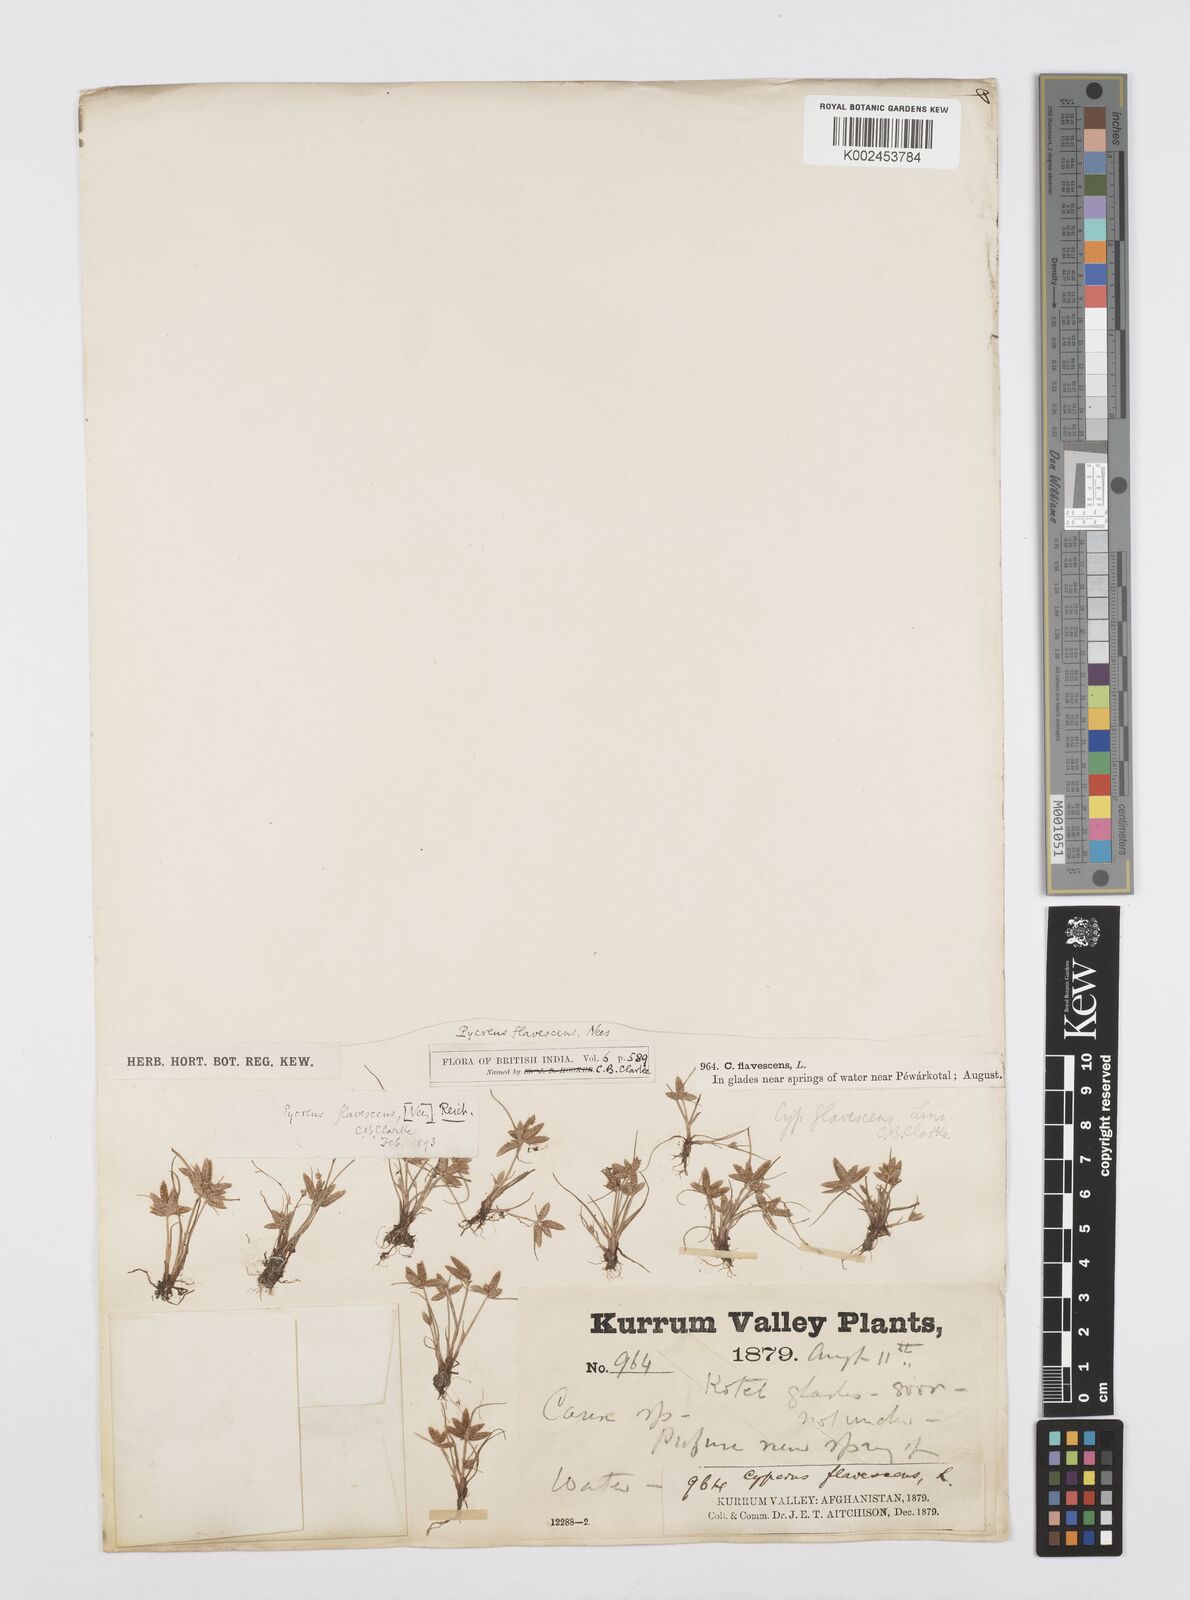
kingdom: Plantae
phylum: Tracheophyta
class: Liliopsida
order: Poales
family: Cyperaceae
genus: Cyperus
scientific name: Cyperus flavescens
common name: Yellow galingale
